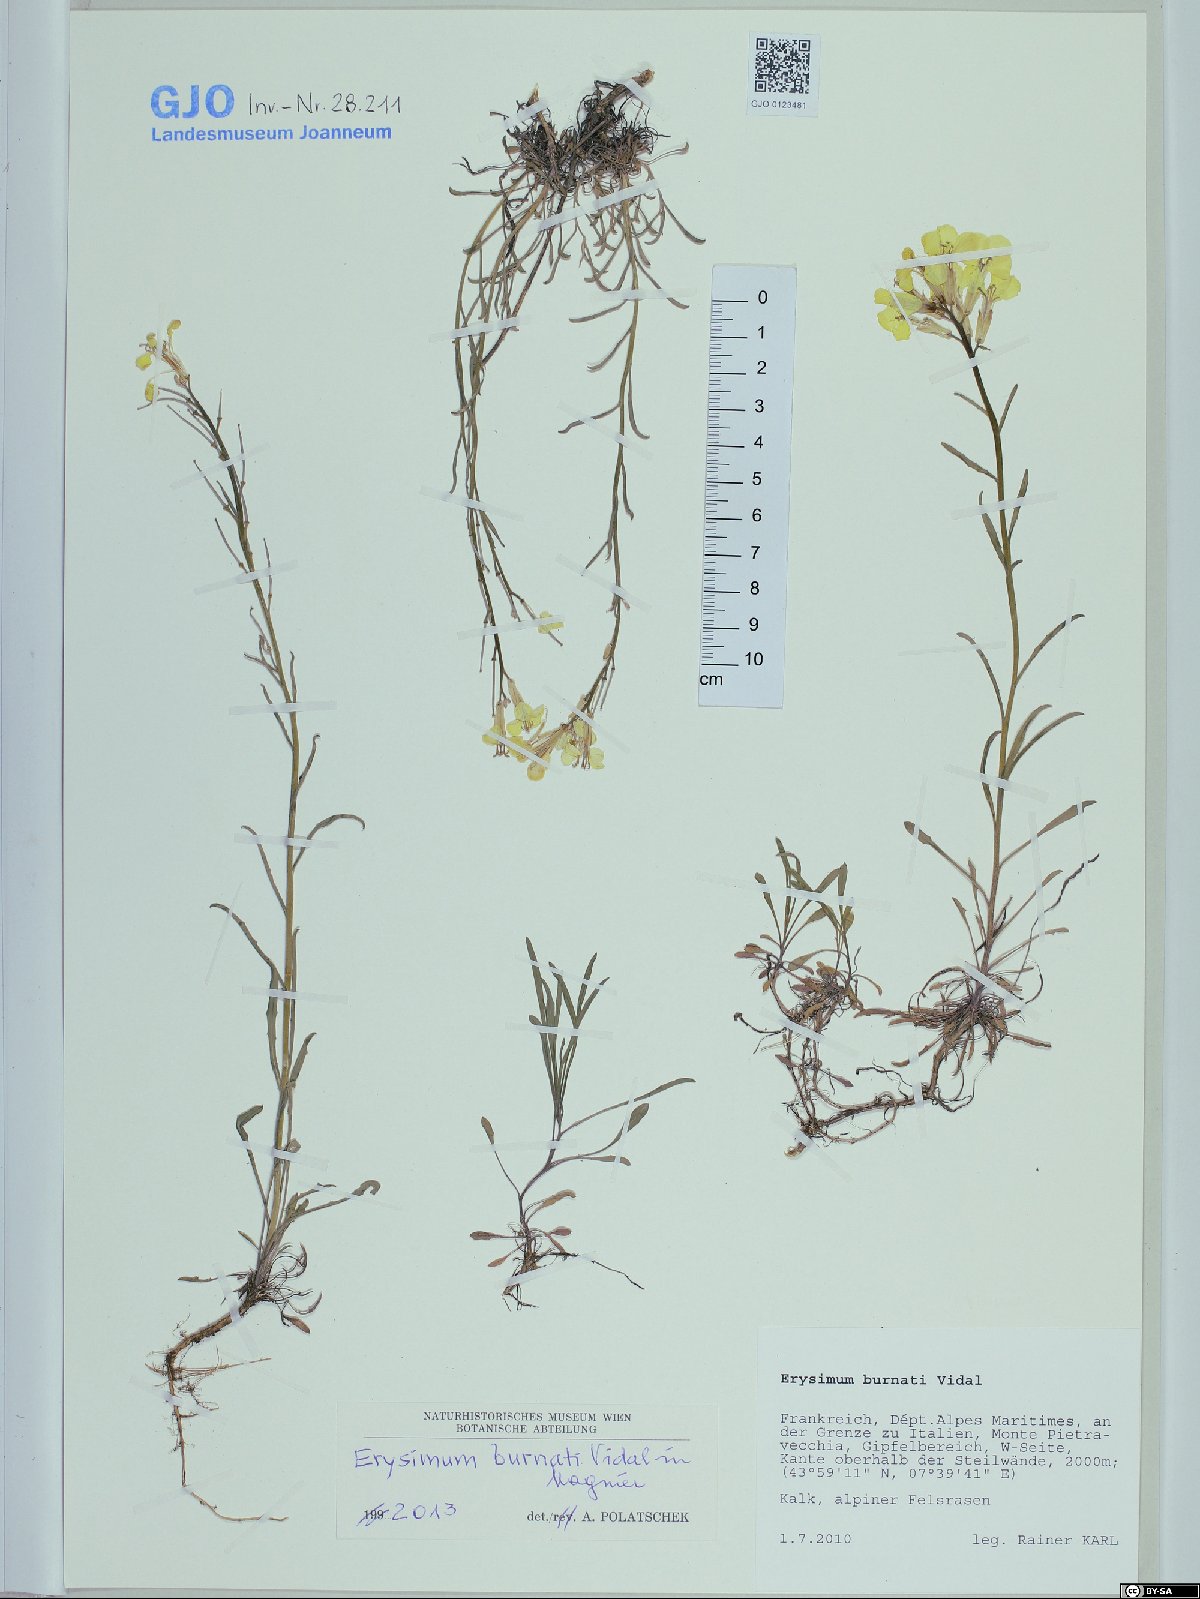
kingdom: Plantae
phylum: Tracheophyta
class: Magnoliopsida
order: Brassicales
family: Brassicaceae
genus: Erysimum
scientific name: Erysimum burnatii
